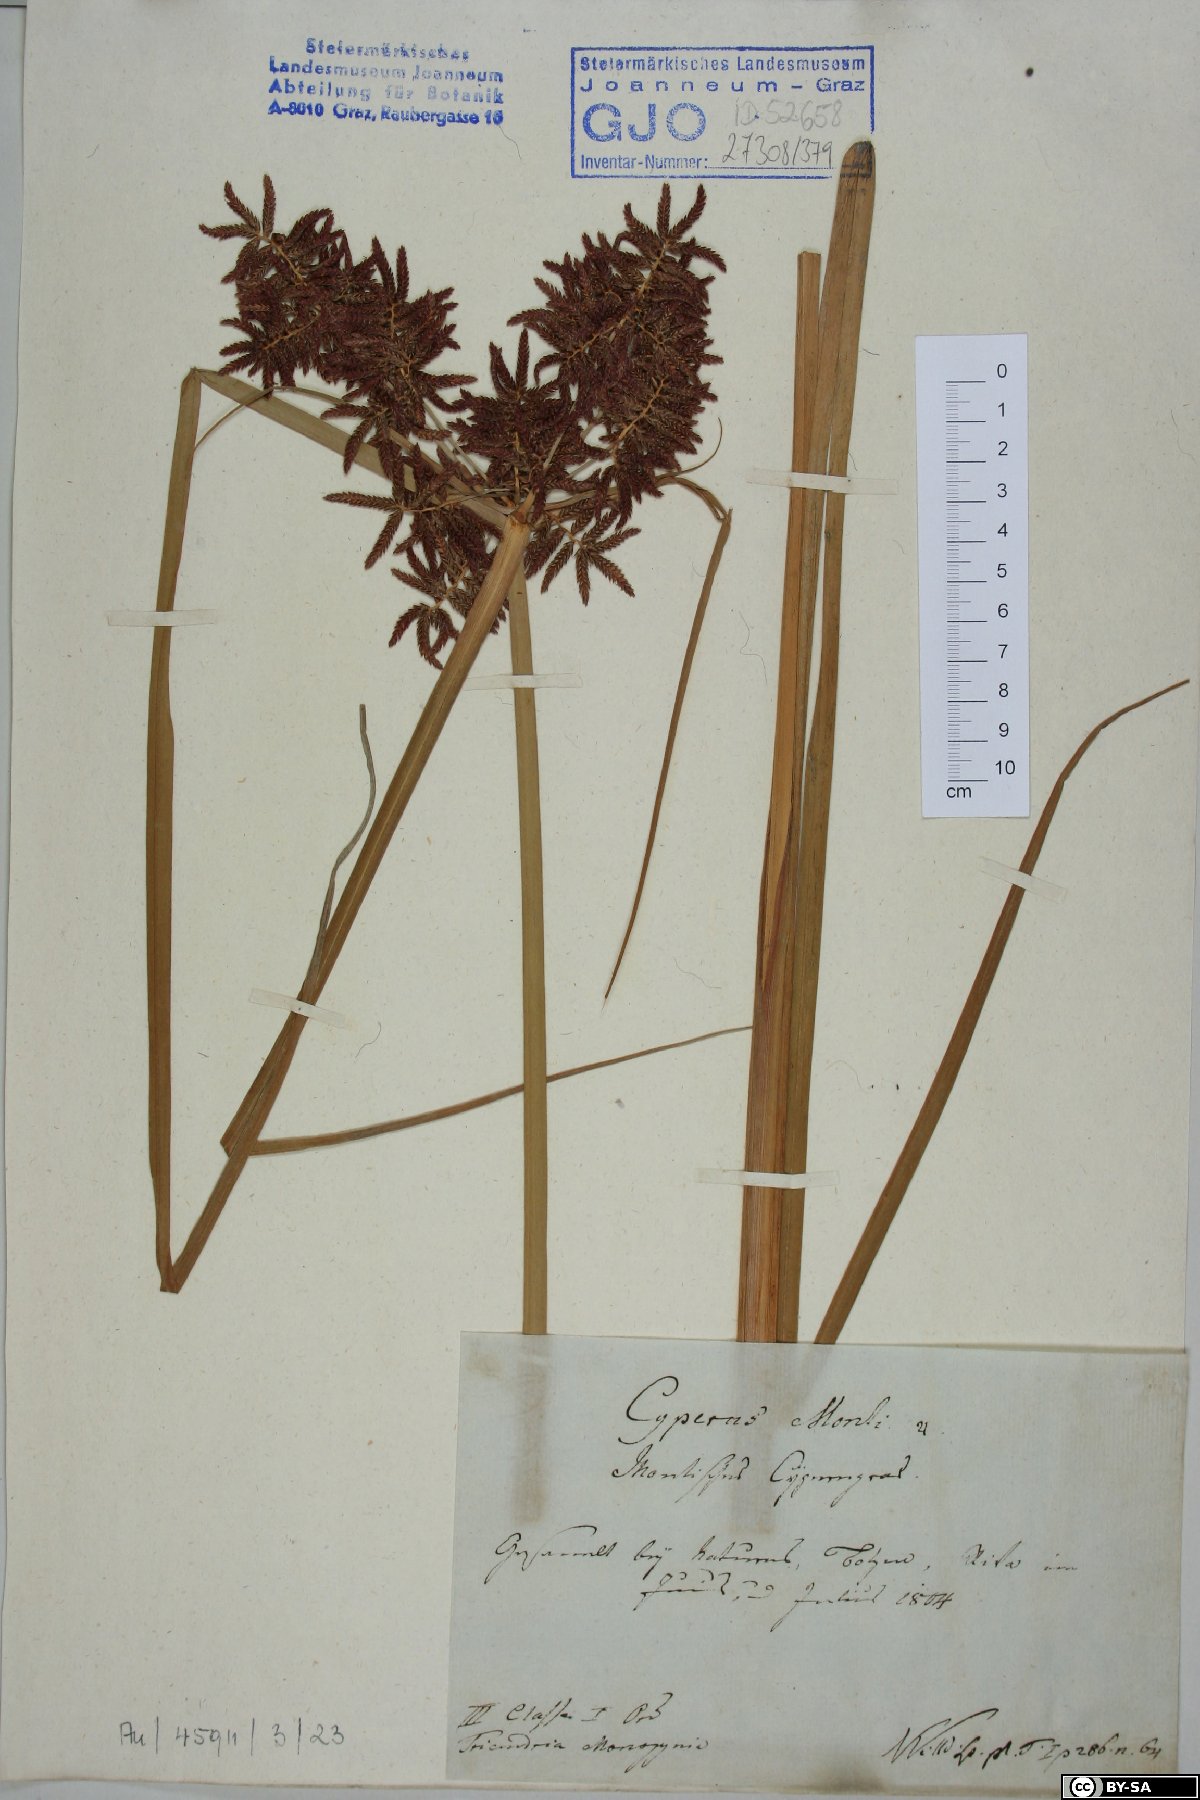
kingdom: Plantae
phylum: Tracheophyta
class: Liliopsida
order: Poales
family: Cyperaceae
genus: Cyperus
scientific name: Cyperus serotinus
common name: Tidalmarsh flatsedge
